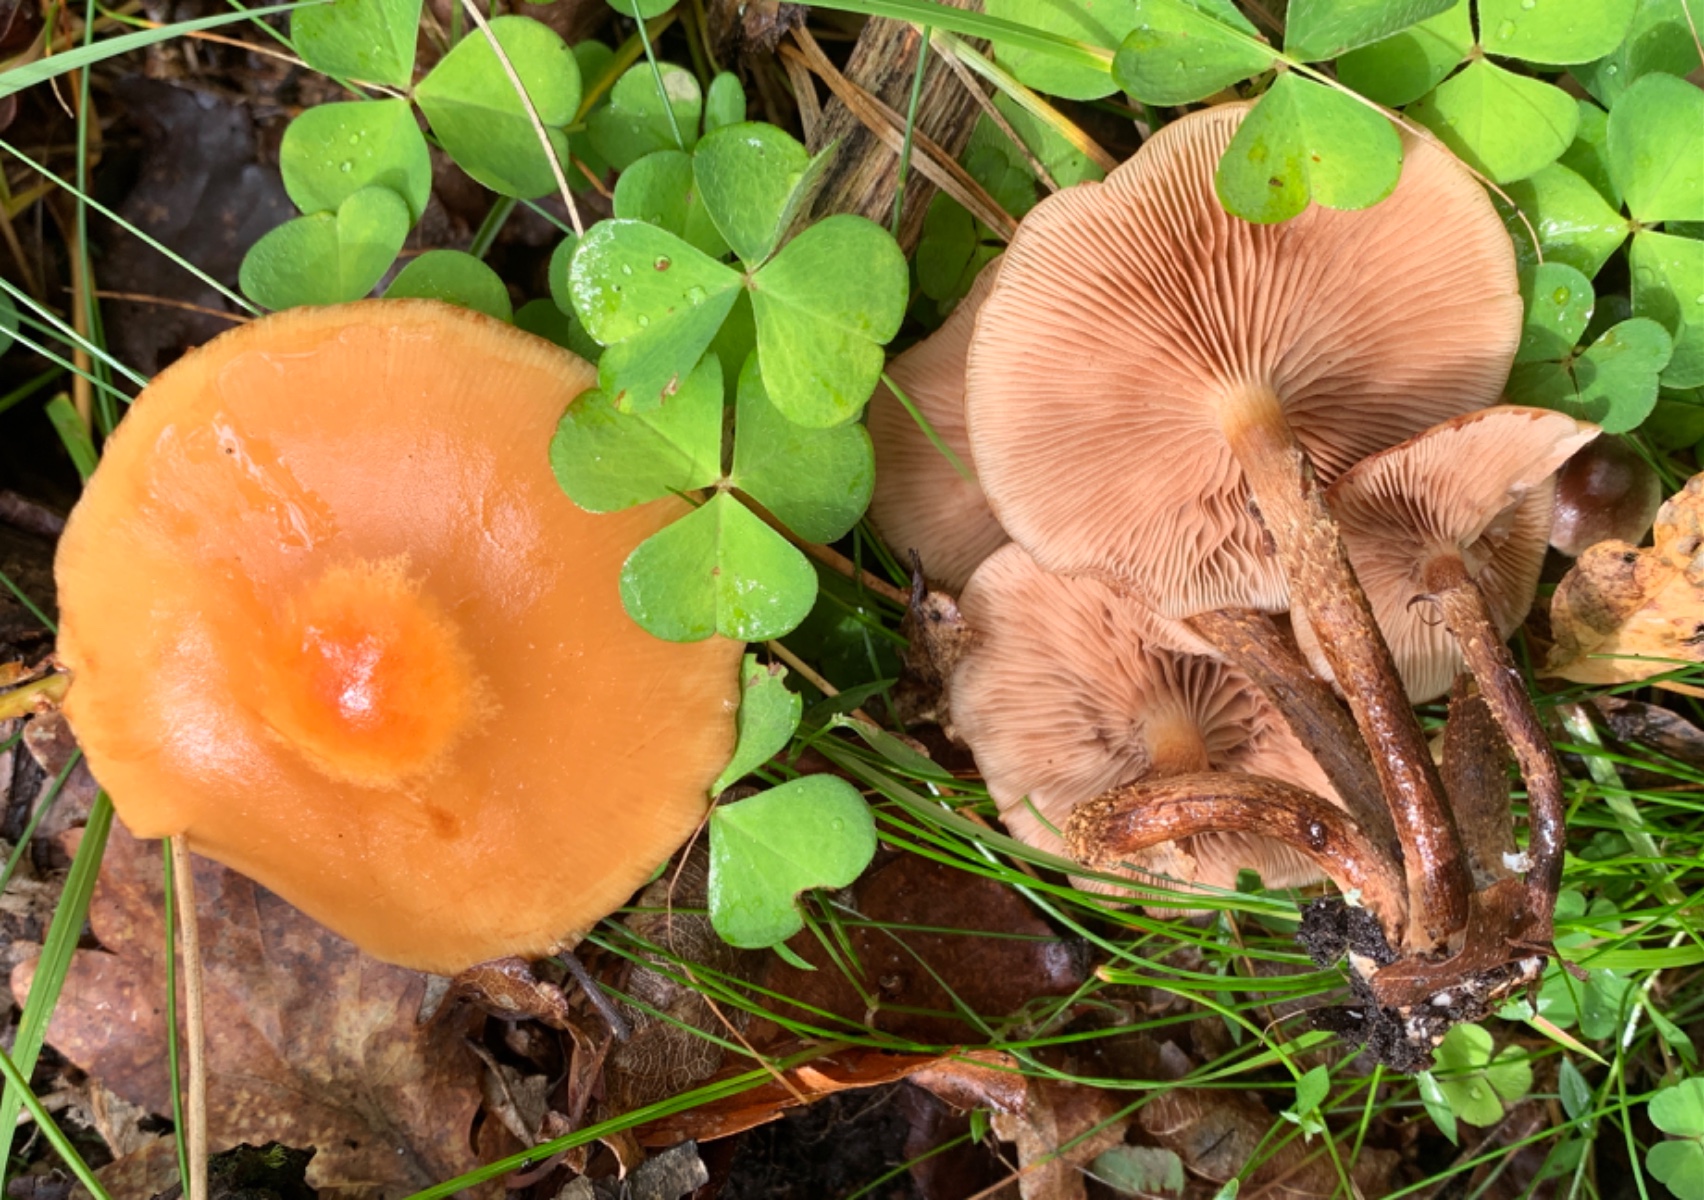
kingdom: Fungi
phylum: Basidiomycota
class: Agaricomycetes
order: Agaricales
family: Strophariaceae
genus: Kuehneromyces
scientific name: Kuehneromyces mutabilis
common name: foranderlig skælhat
